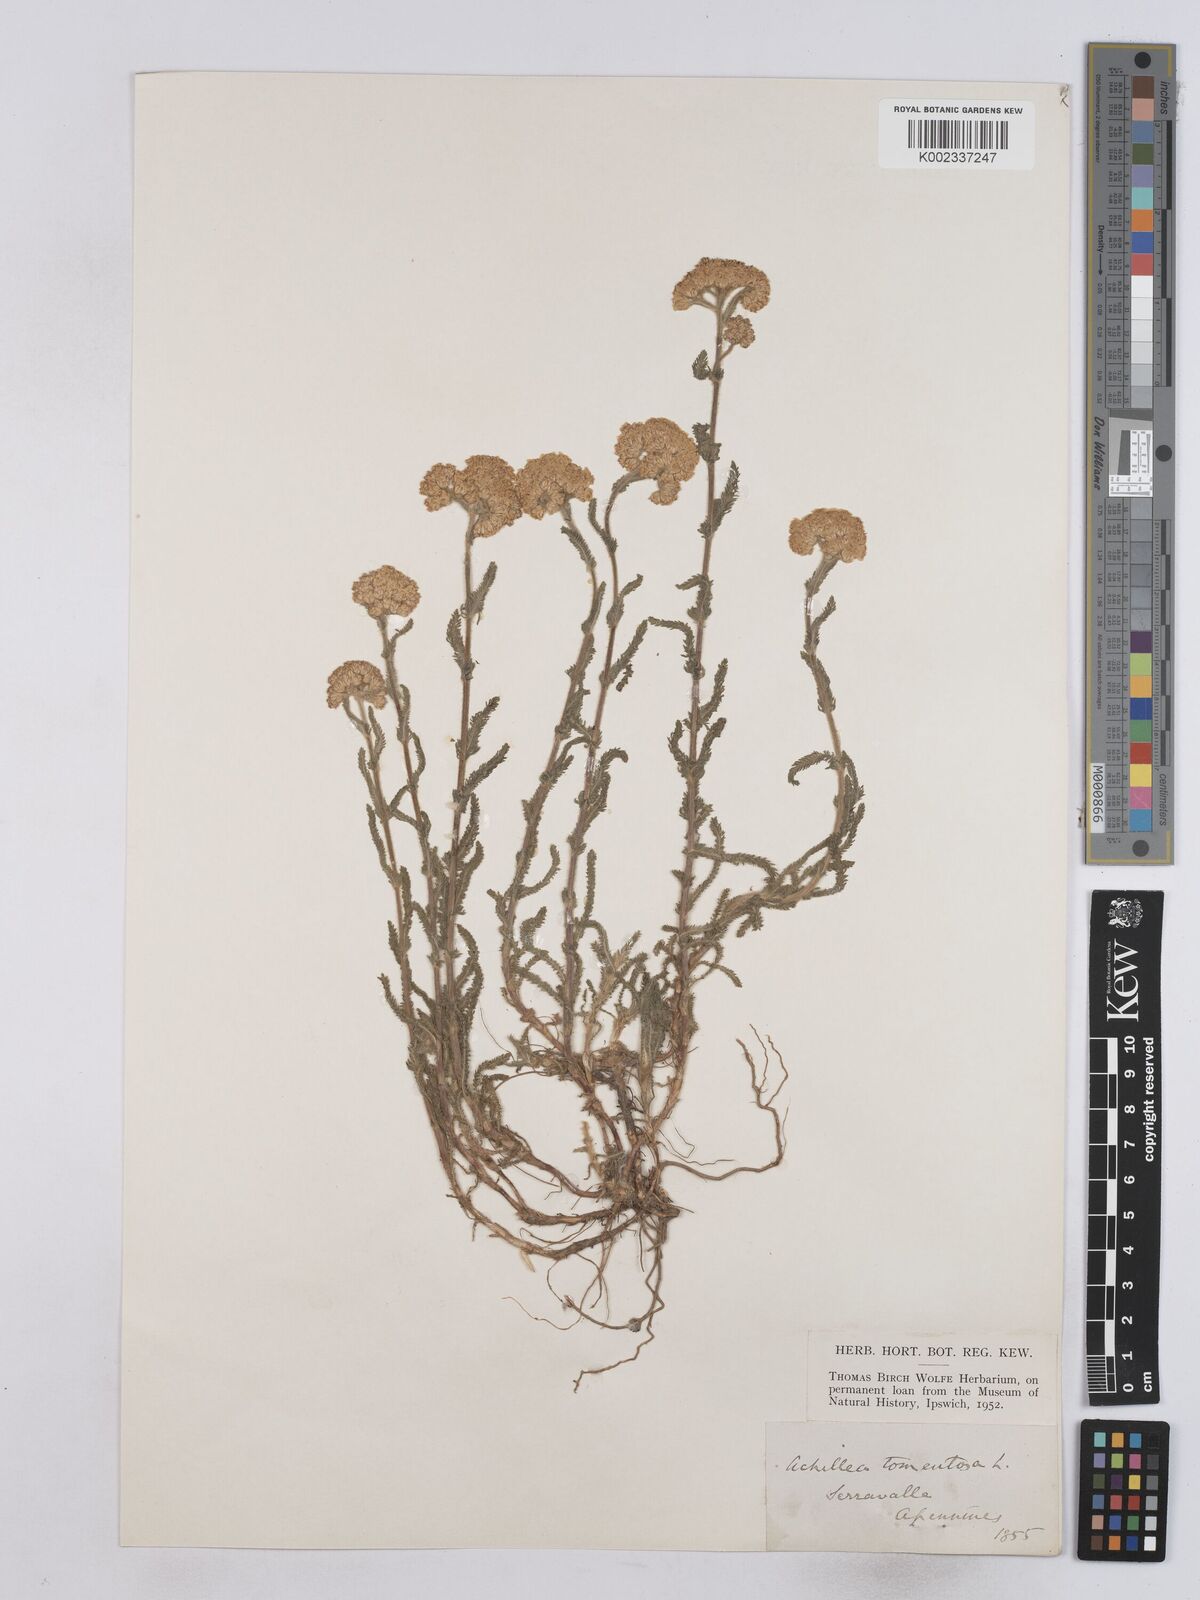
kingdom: Plantae
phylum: Tracheophyta
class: Magnoliopsida
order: Asterales
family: Asteraceae
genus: Achillea
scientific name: Achillea tomentosa
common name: Yellow milfoil
